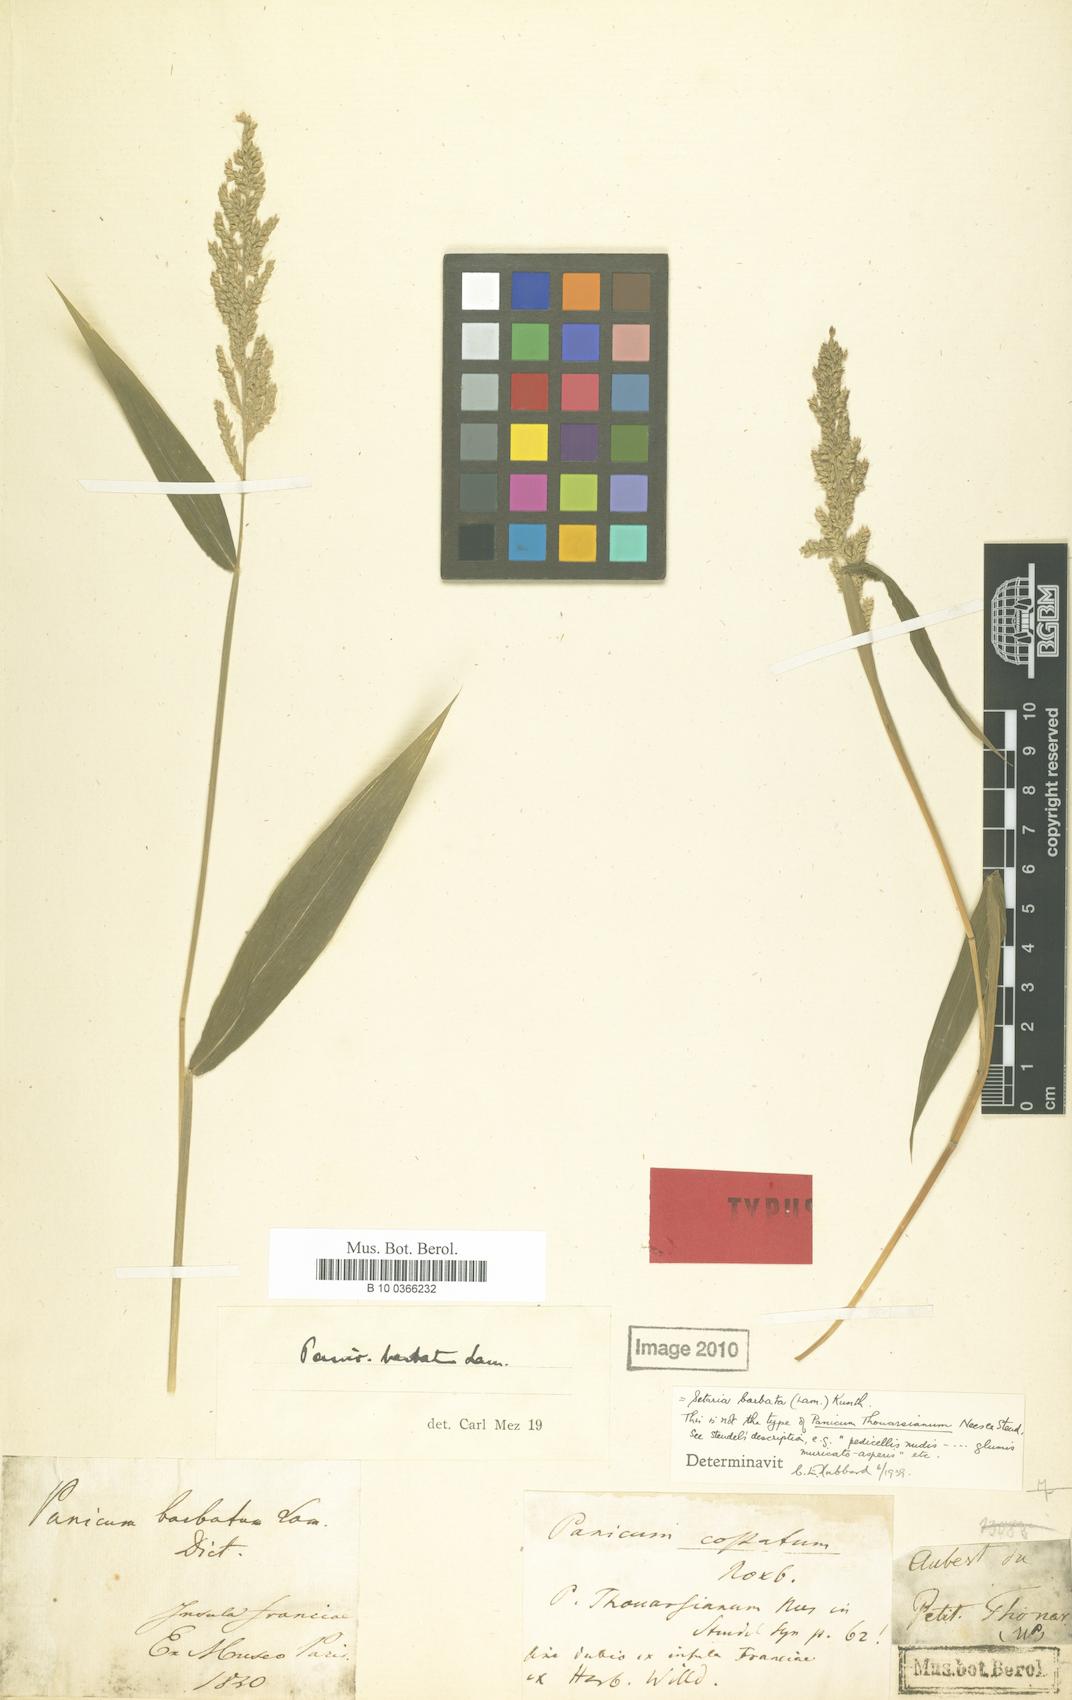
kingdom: Plantae
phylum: Tracheophyta
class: Liliopsida
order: Poales
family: Poaceae
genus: Urochloa
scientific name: Urochloa fusca
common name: Browntop signal grass
